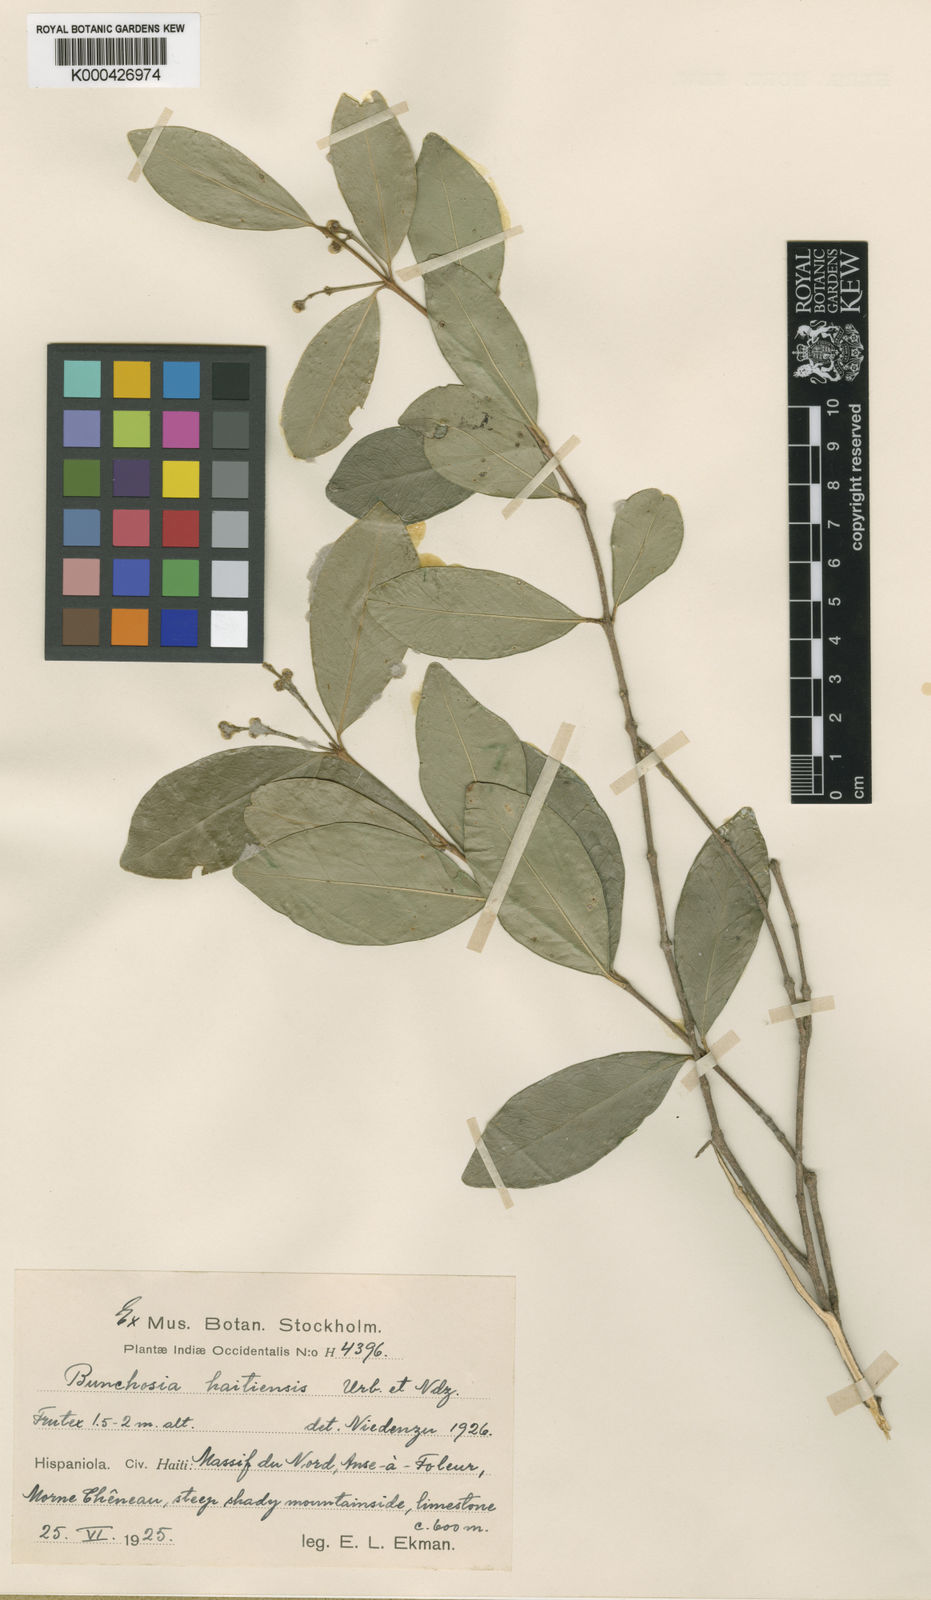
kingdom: Plantae
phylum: Tracheophyta
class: Magnoliopsida
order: Malpighiales
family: Malpighiaceae
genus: Bunchosia
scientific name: Bunchosia haitiensis
